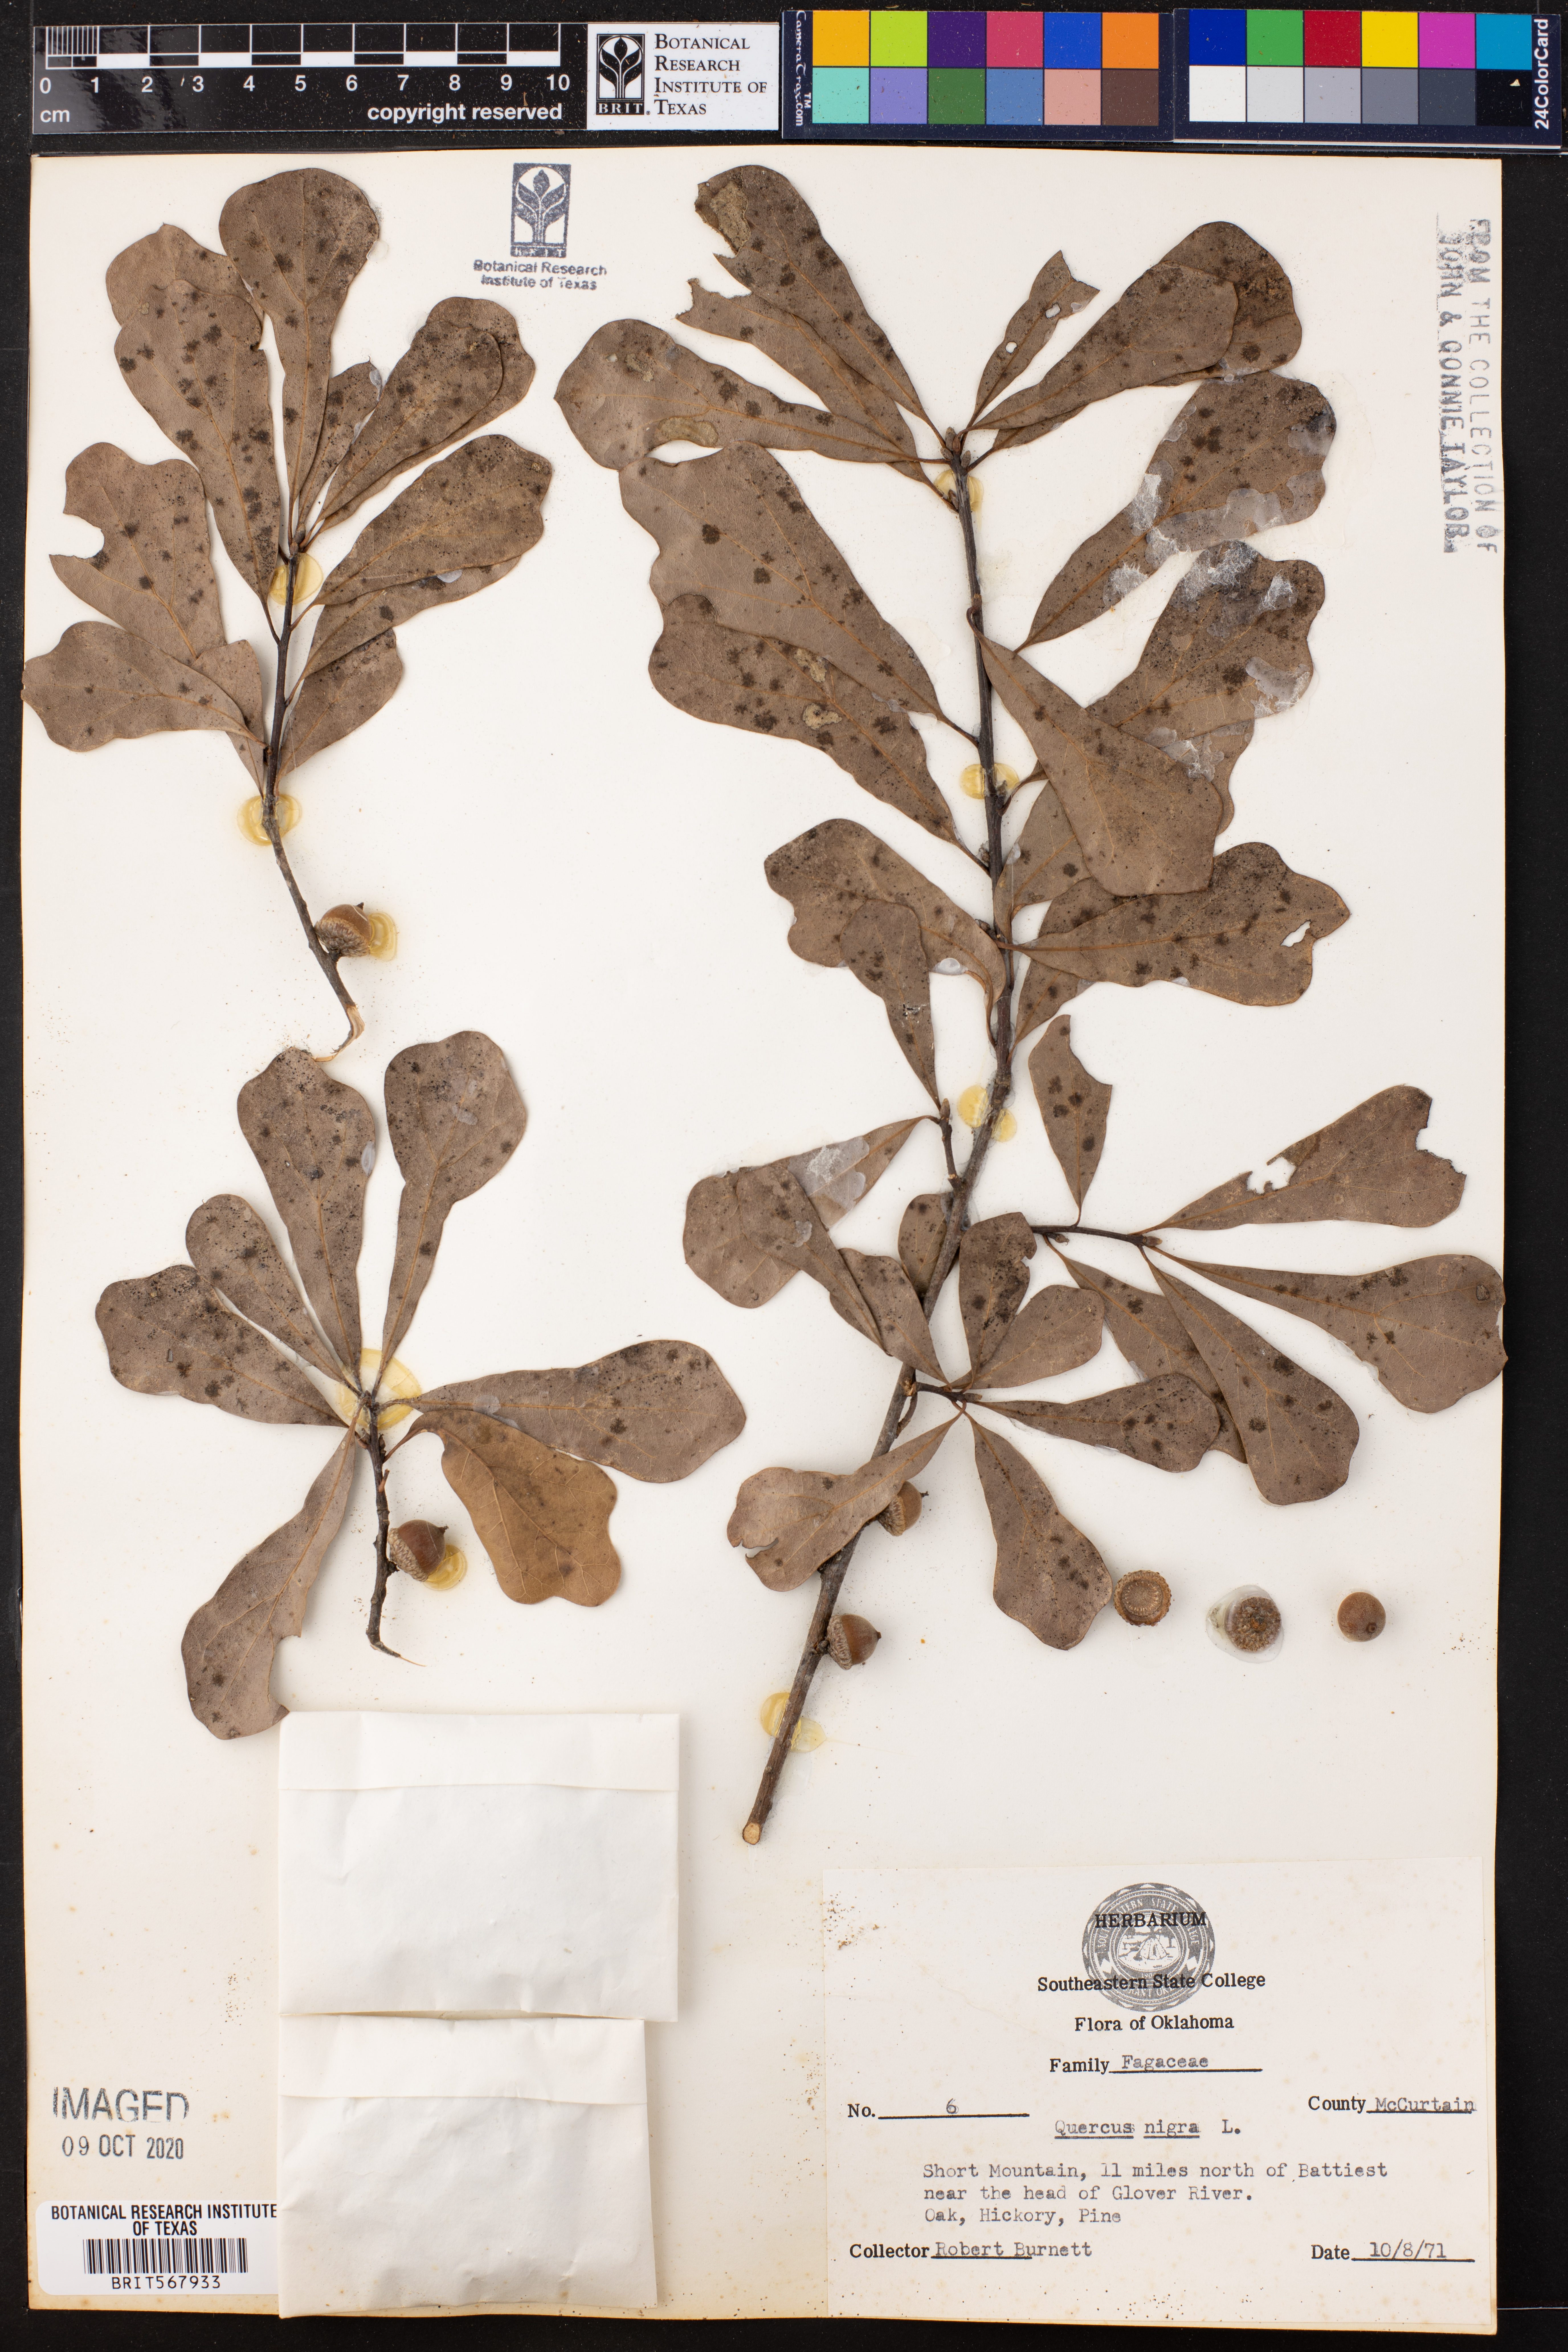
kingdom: Plantae
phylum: Tracheophyta
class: Magnoliopsida
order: Fagales
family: Fagaceae
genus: Quercus
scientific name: Quercus nigra
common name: Water oak
